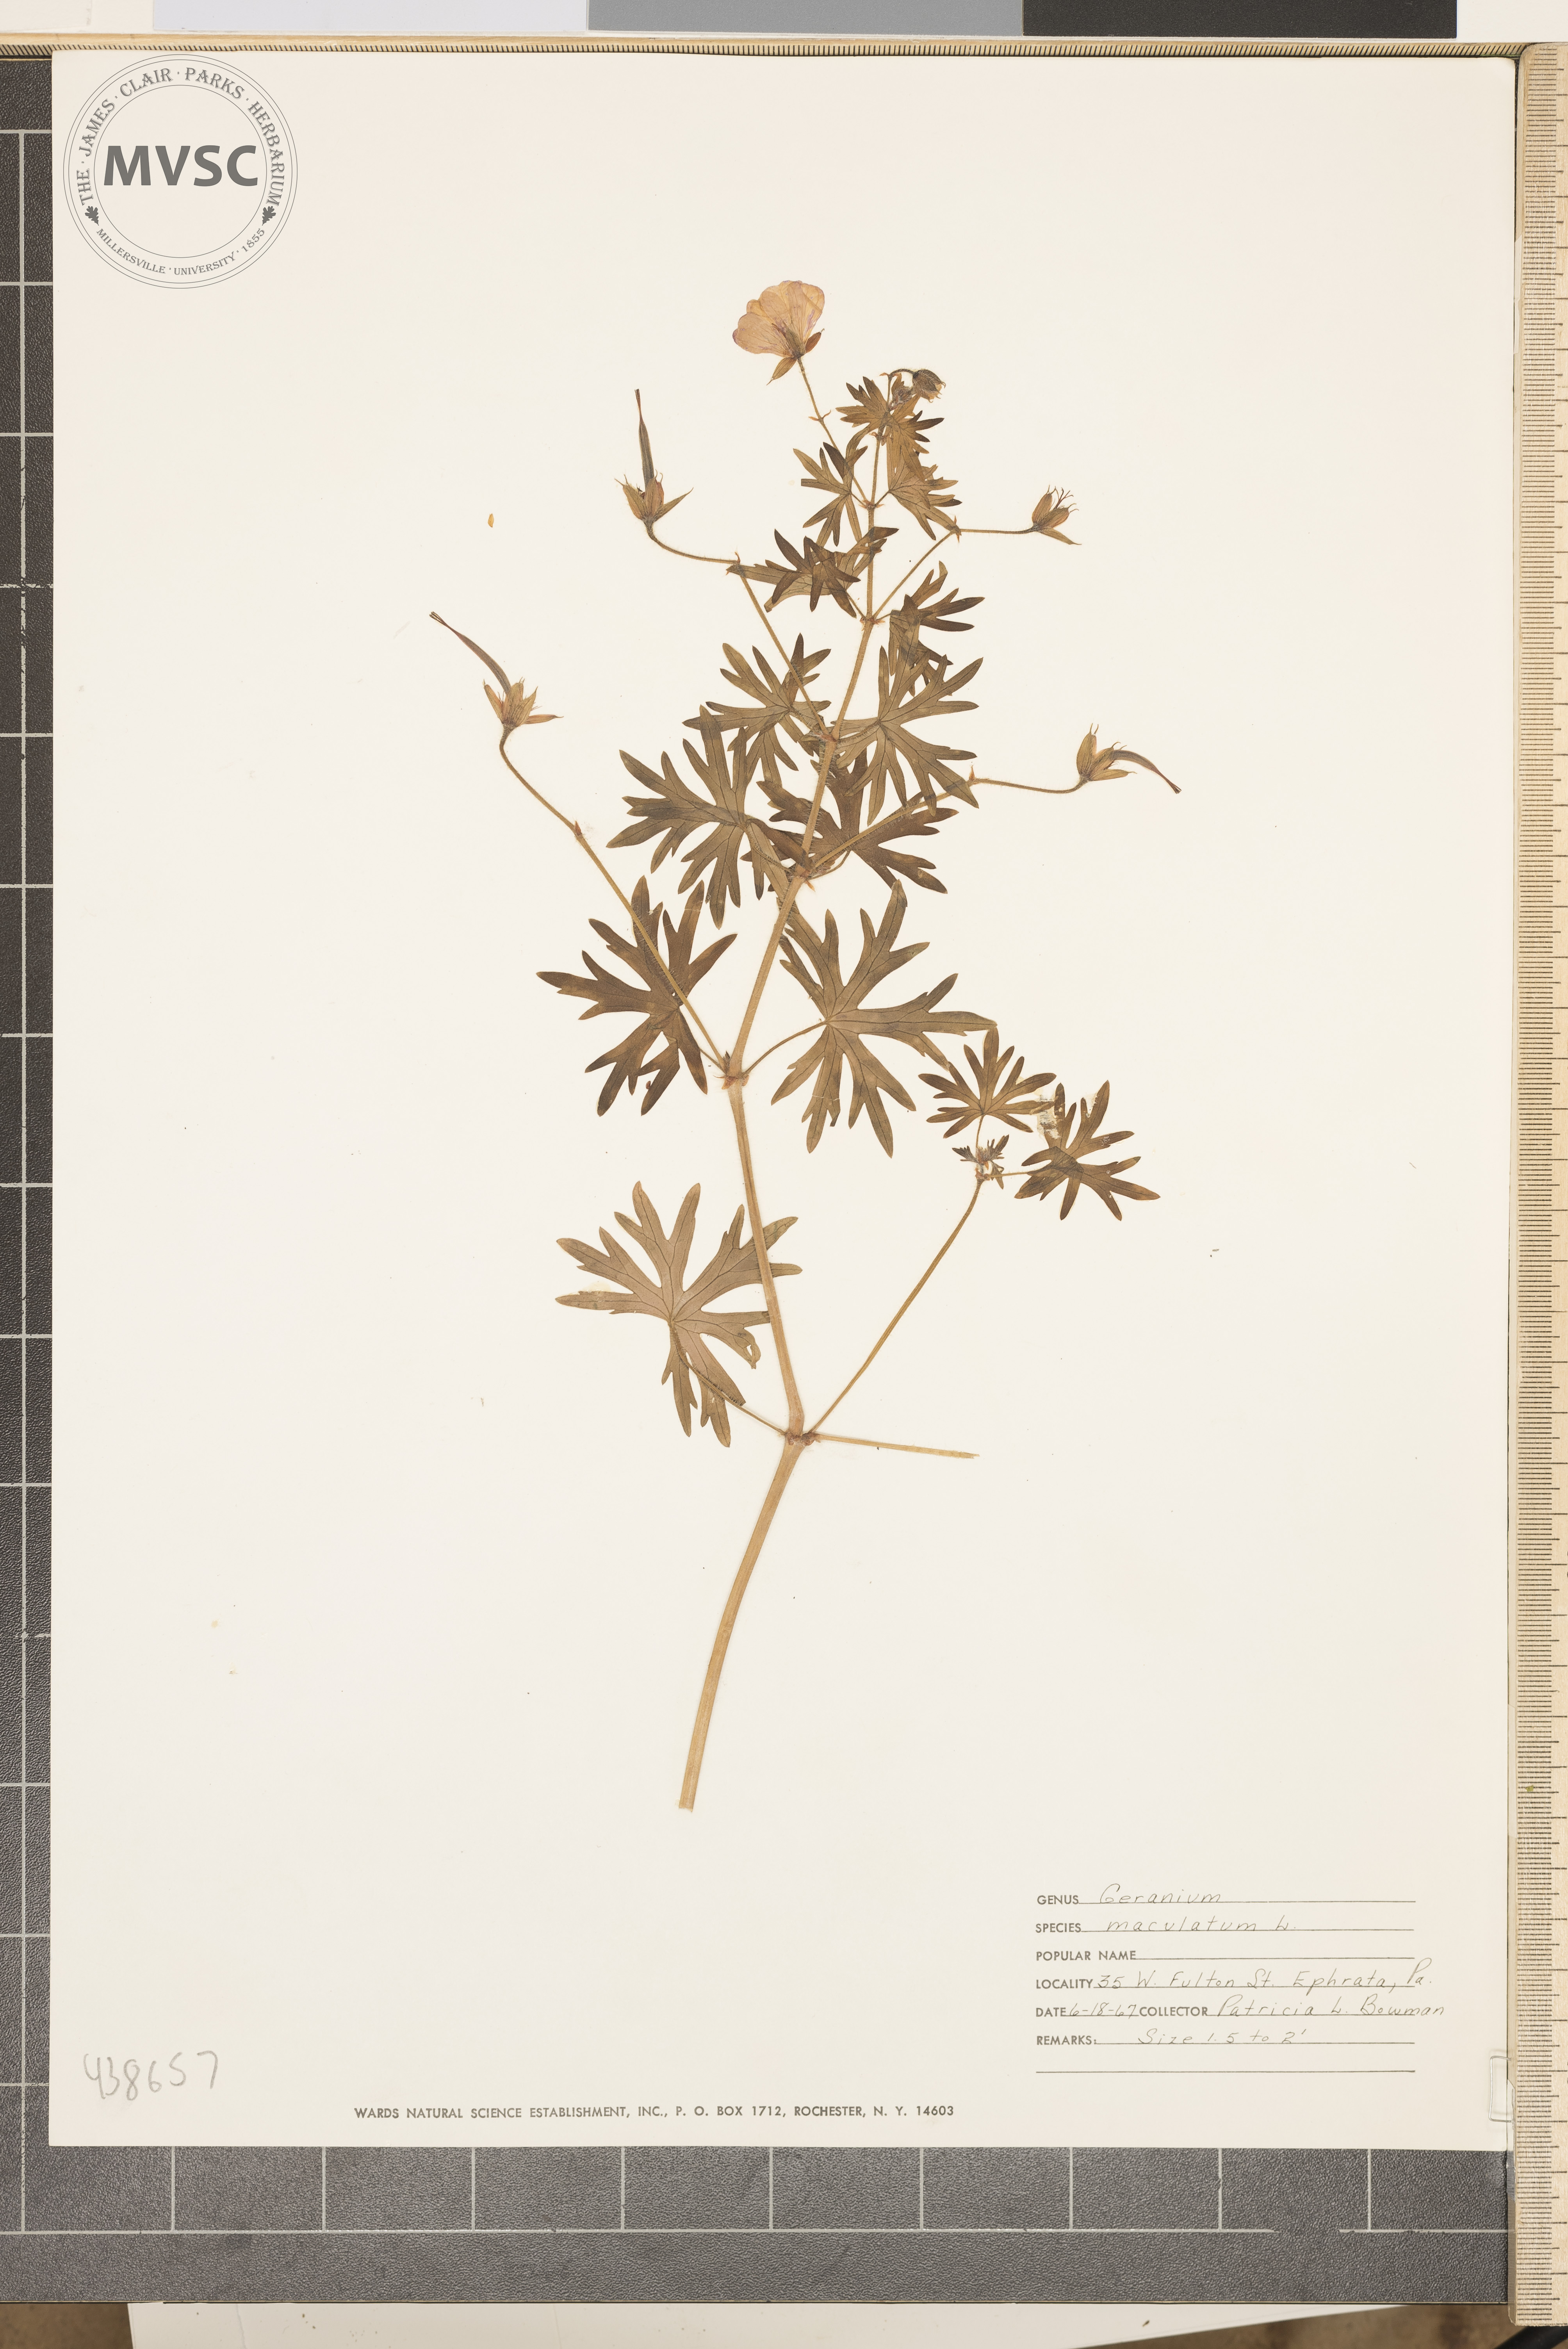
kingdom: Plantae
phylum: Tracheophyta
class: Magnoliopsida
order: Geraniales
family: Geraniaceae
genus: Geranium
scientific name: Geranium maculatum
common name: Spotted geranium
